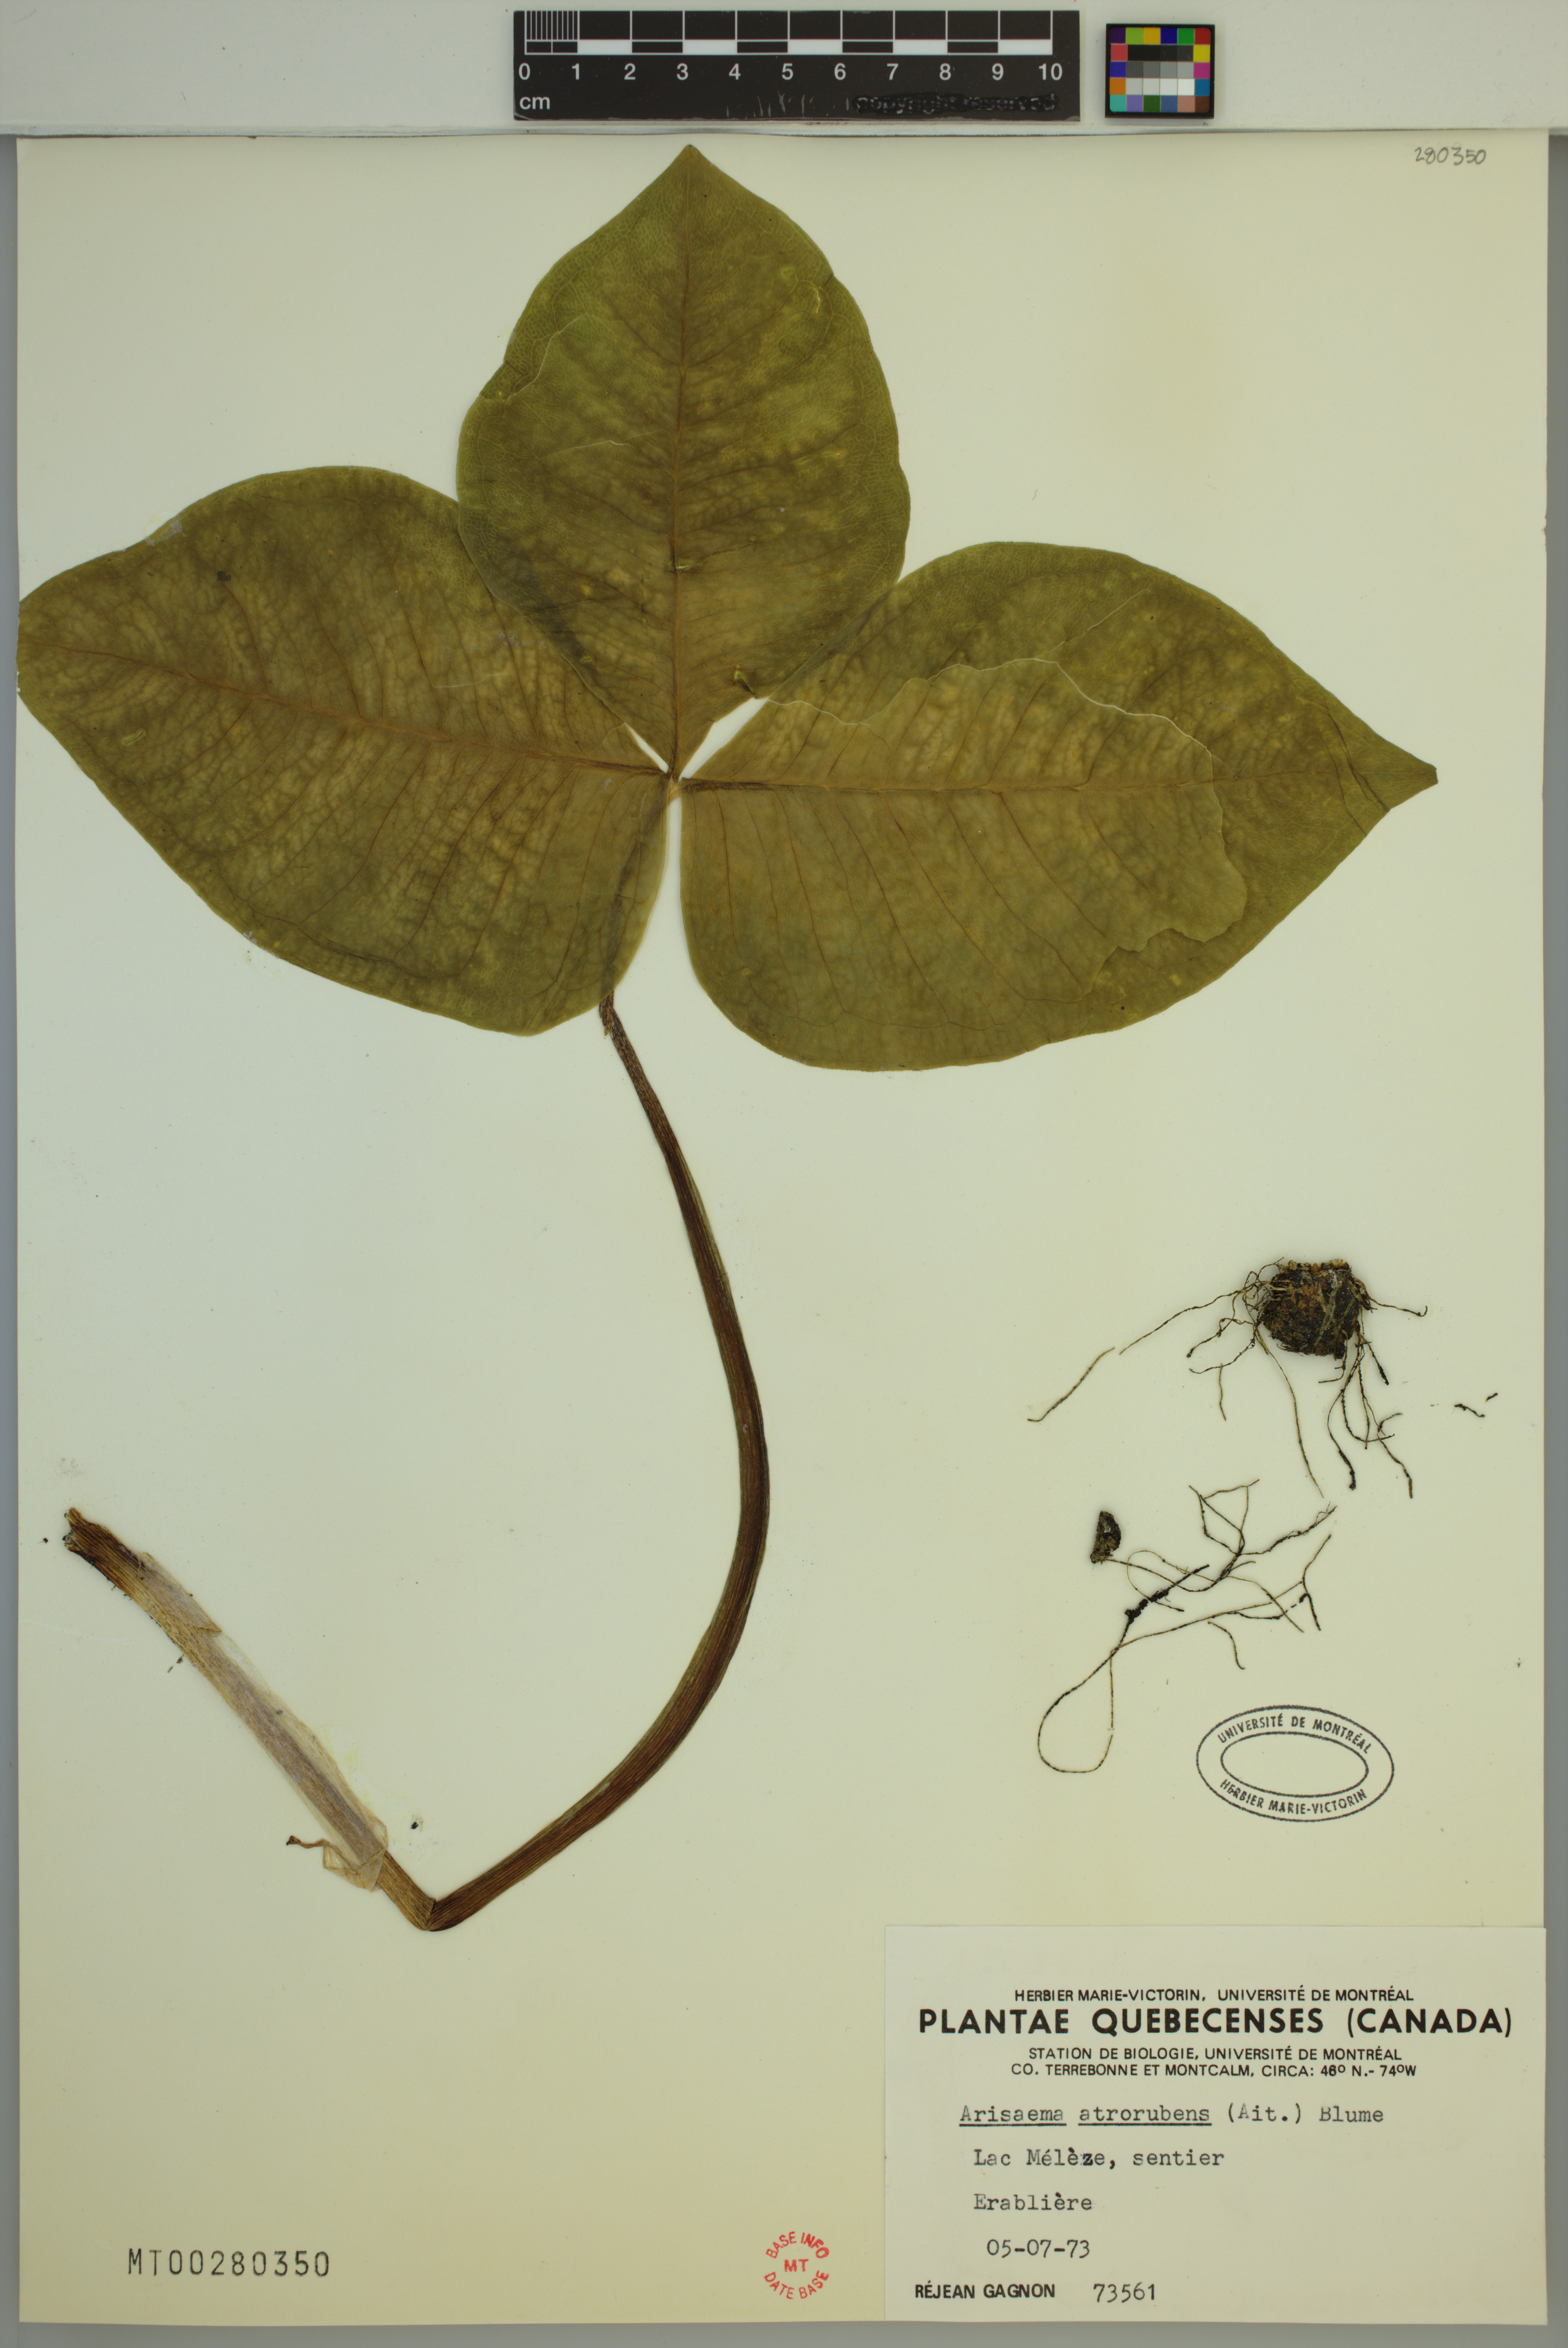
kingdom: Plantae
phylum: Tracheophyta
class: Liliopsida
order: Alismatales
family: Araceae
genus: Arisaema
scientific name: Arisaema triphyllum
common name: Jack-in-the-pulpit
